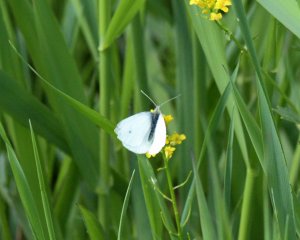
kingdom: Animalia
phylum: Arthropoda
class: Insecta
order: Lepidoptera
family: Pieridae
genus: Pieris
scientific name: Pieris rapae
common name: Cabbage White
